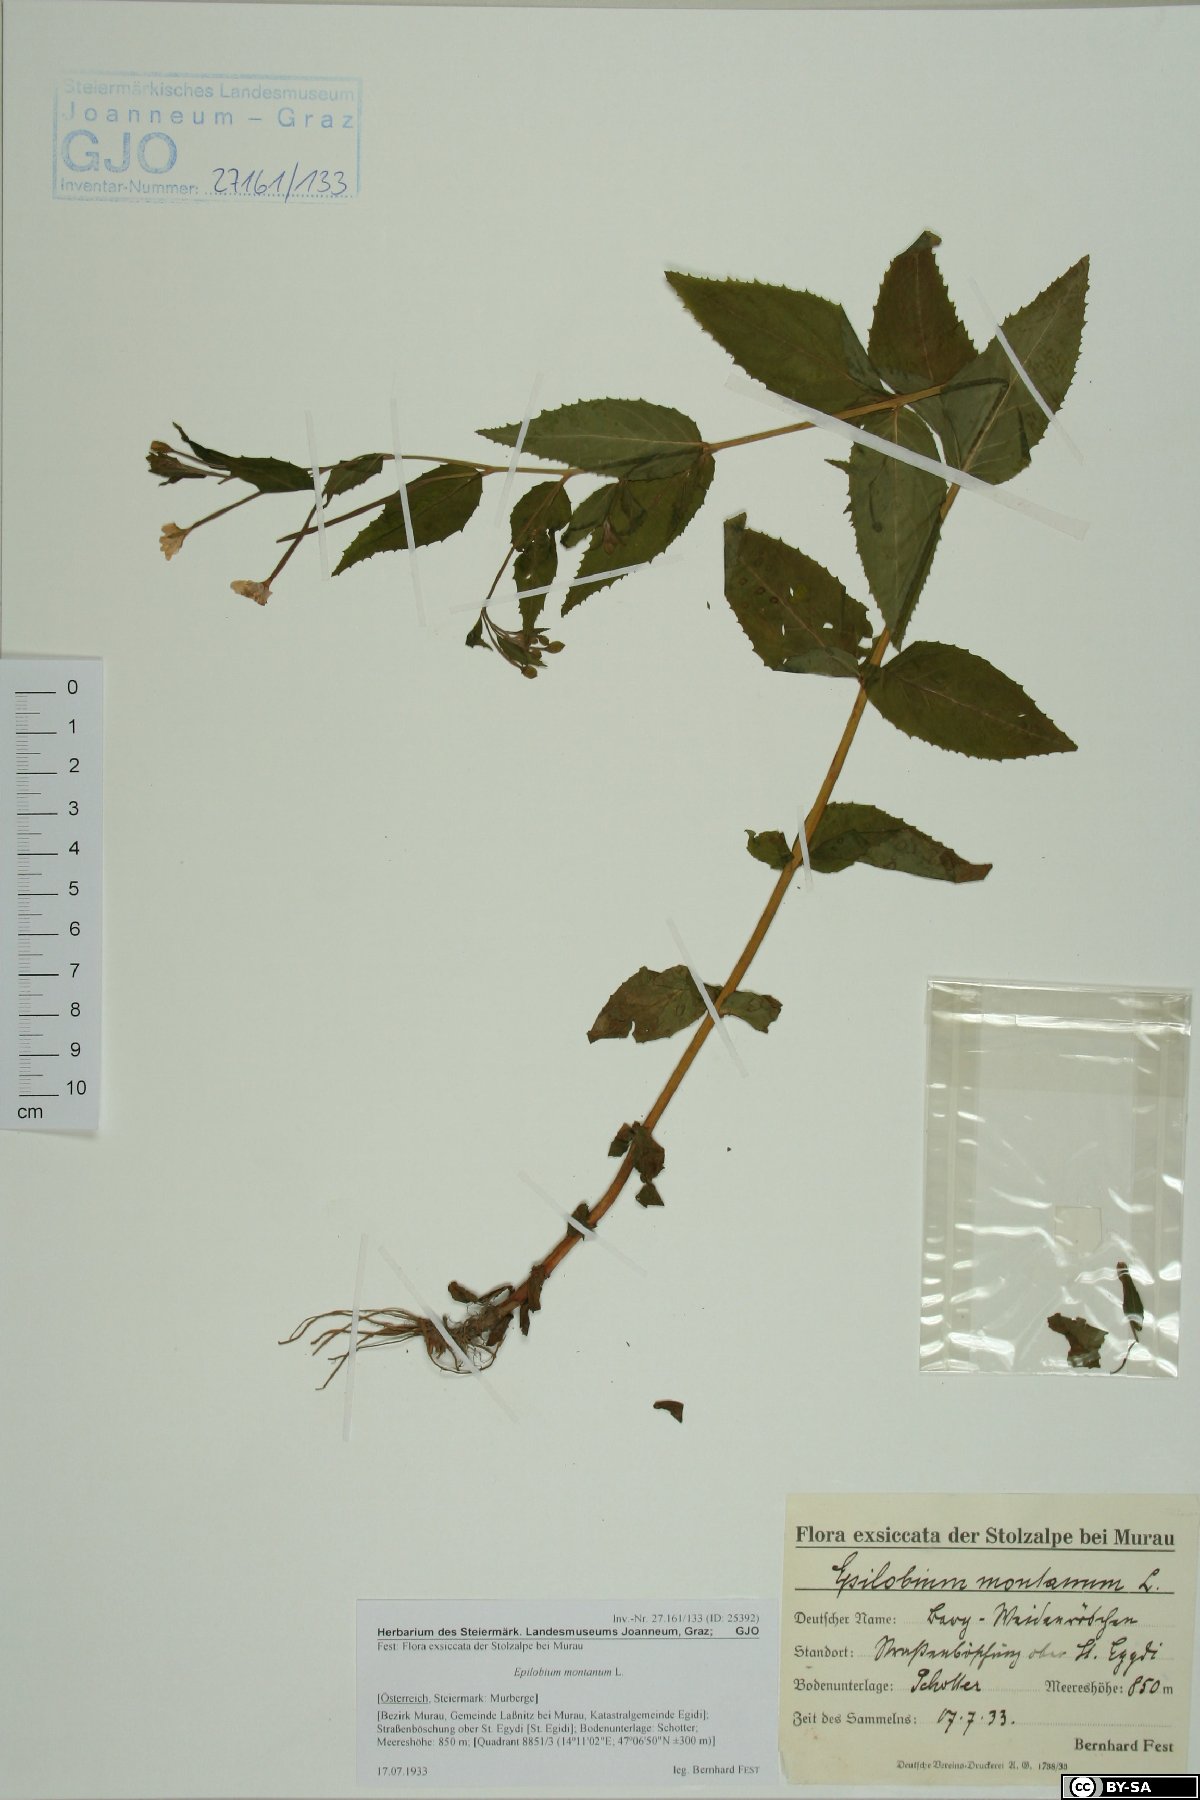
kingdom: Plantae
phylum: Tracheophyta
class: Magnoliopsida
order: Myrtales
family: Onagraceae
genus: Epilobium
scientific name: Epilobium montanum
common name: Broad-leaved willowherb
